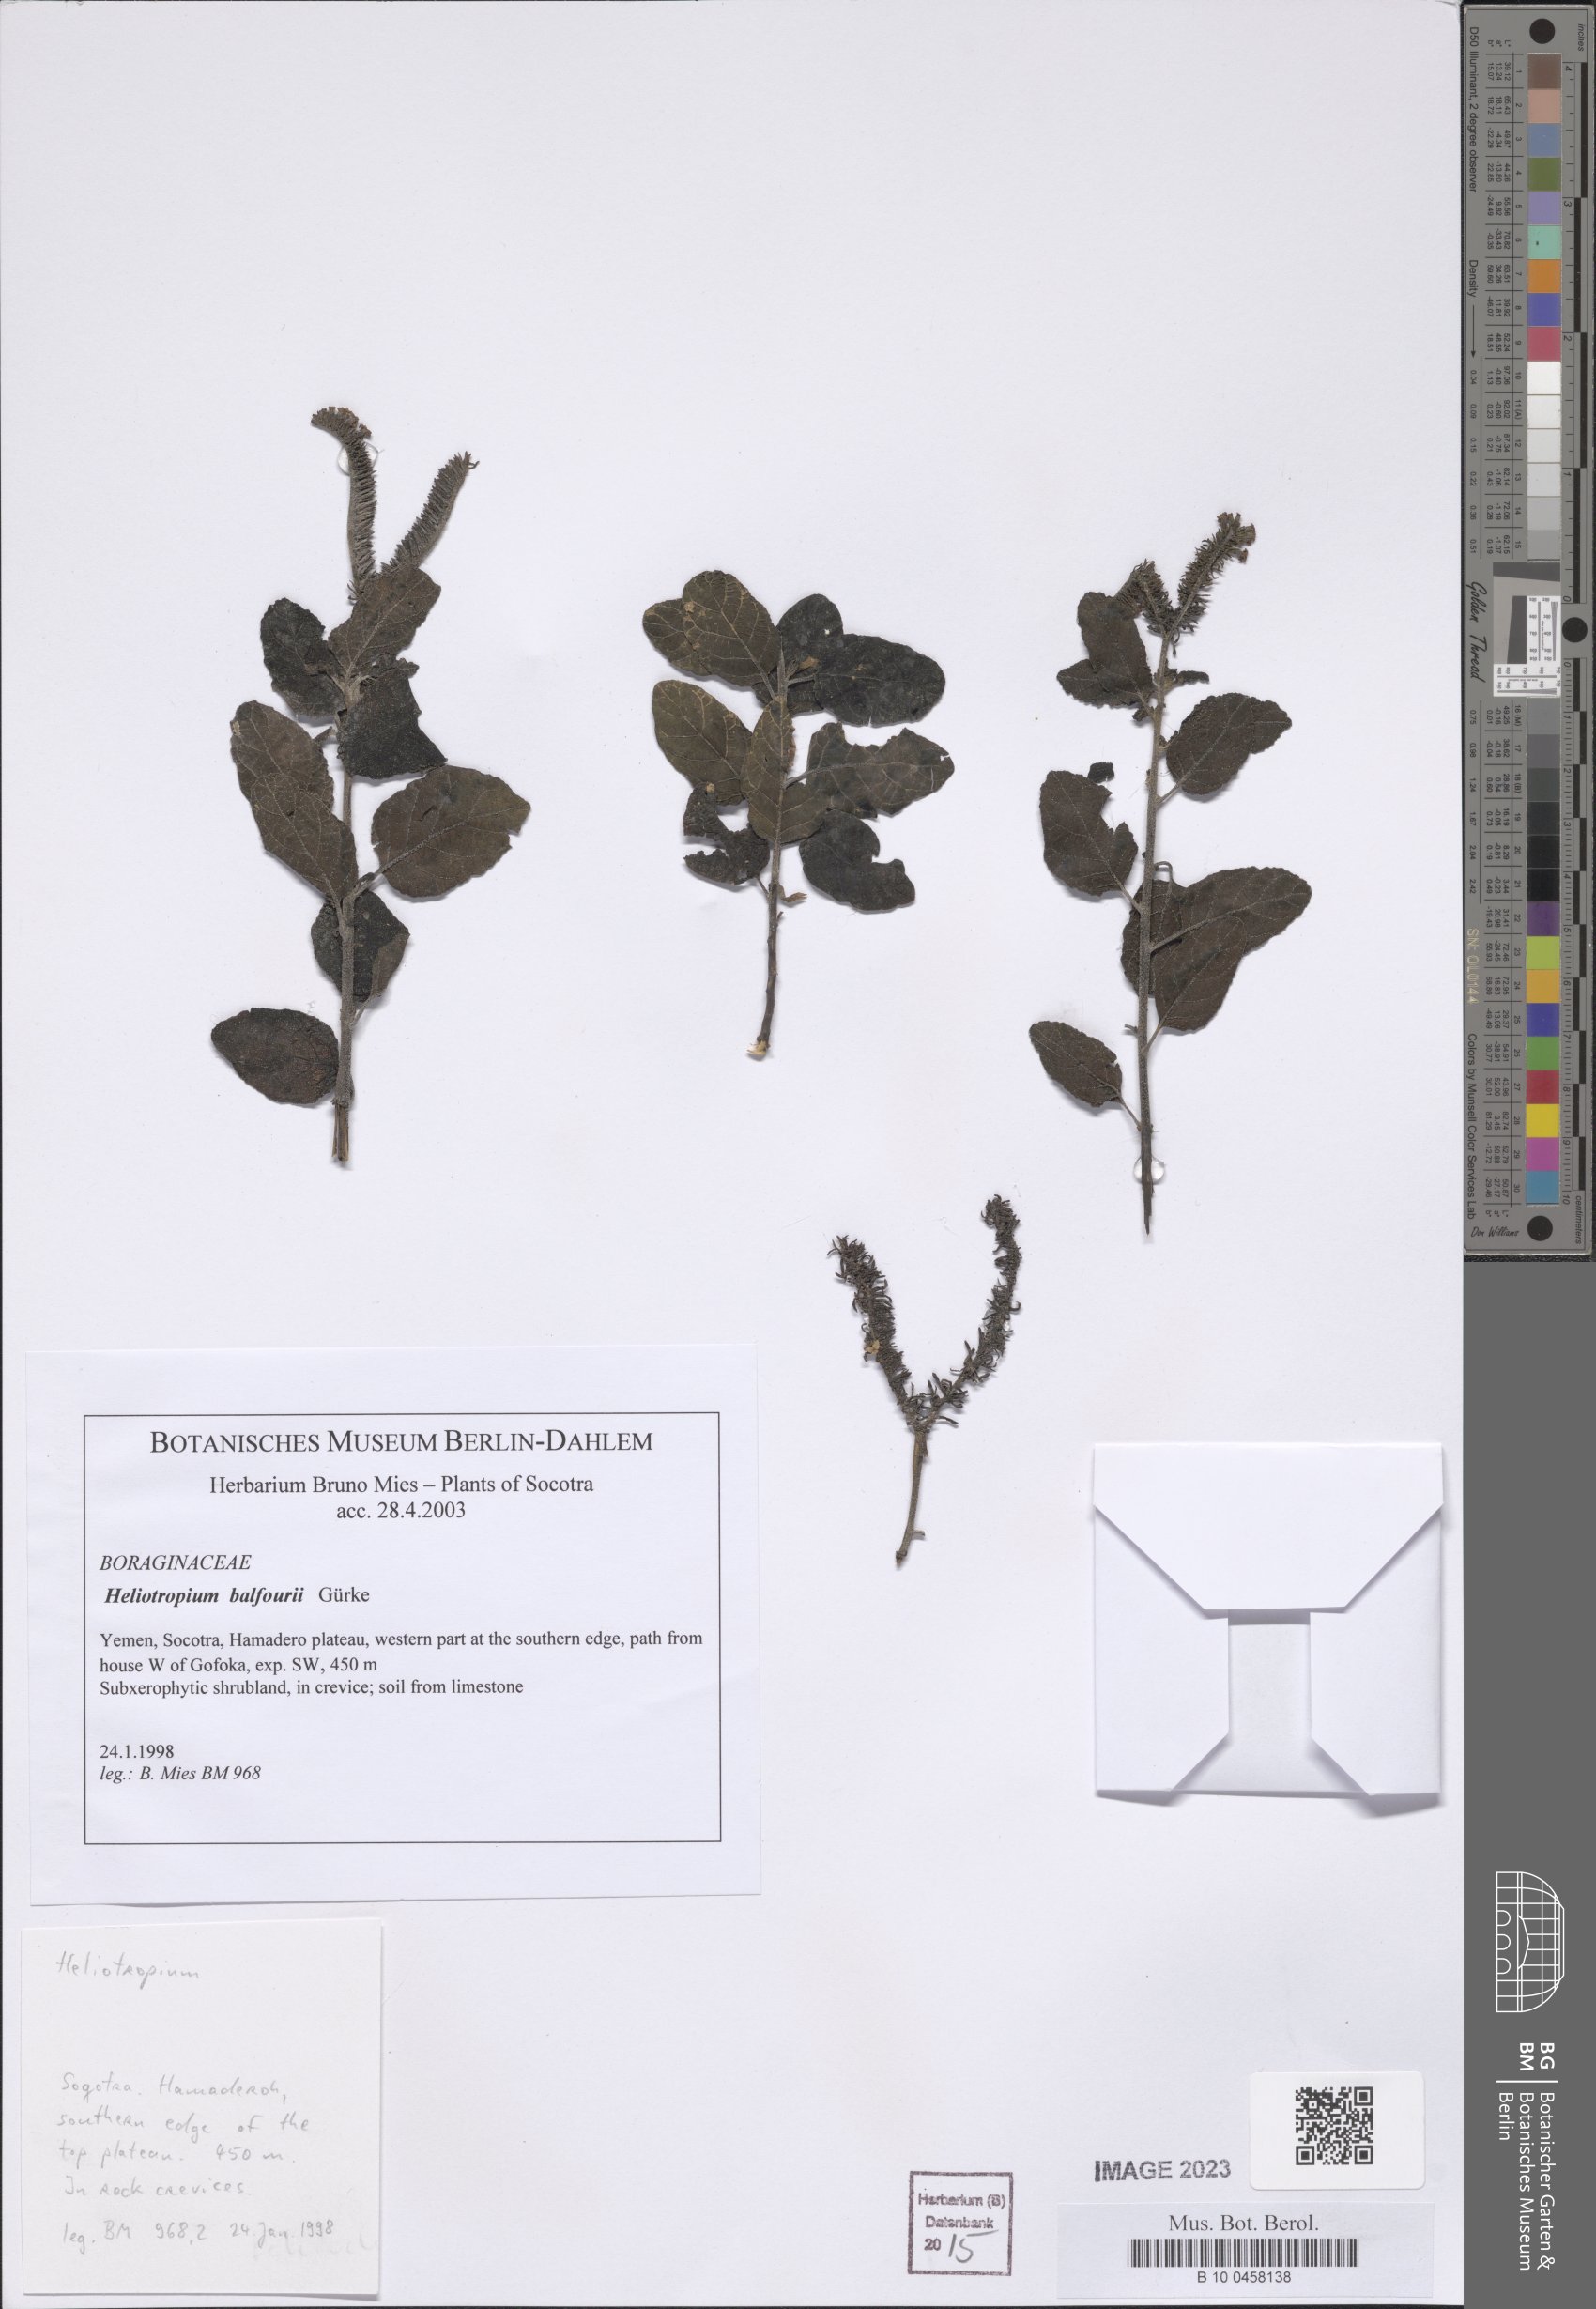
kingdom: Plantae
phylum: Tracheophyta
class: Magnoliopsida
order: Boraginales
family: Heliotropiaceae
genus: Heliotropium
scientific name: Heliotropium balfourii
